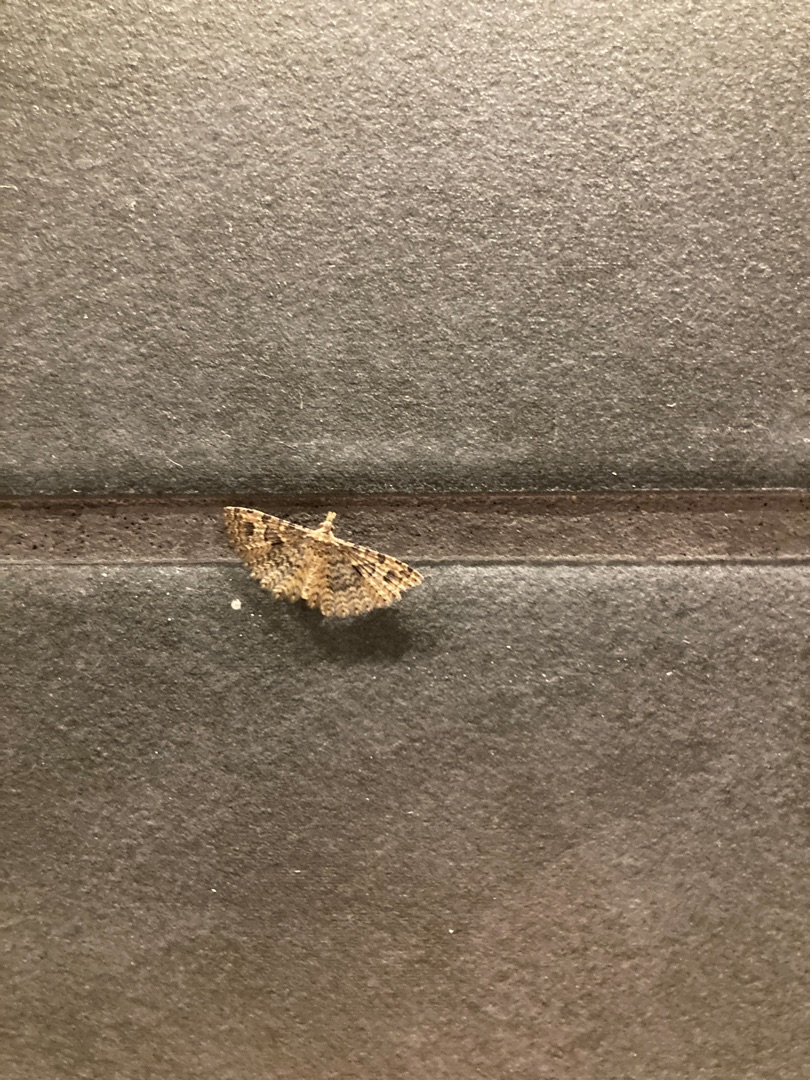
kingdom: Animalia
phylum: Arthropoda
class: Insecta
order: Lepidoptera
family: Alucitidae
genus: Alucita
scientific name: Alucita hexadactyla
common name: Kaprifoliefjermøl
